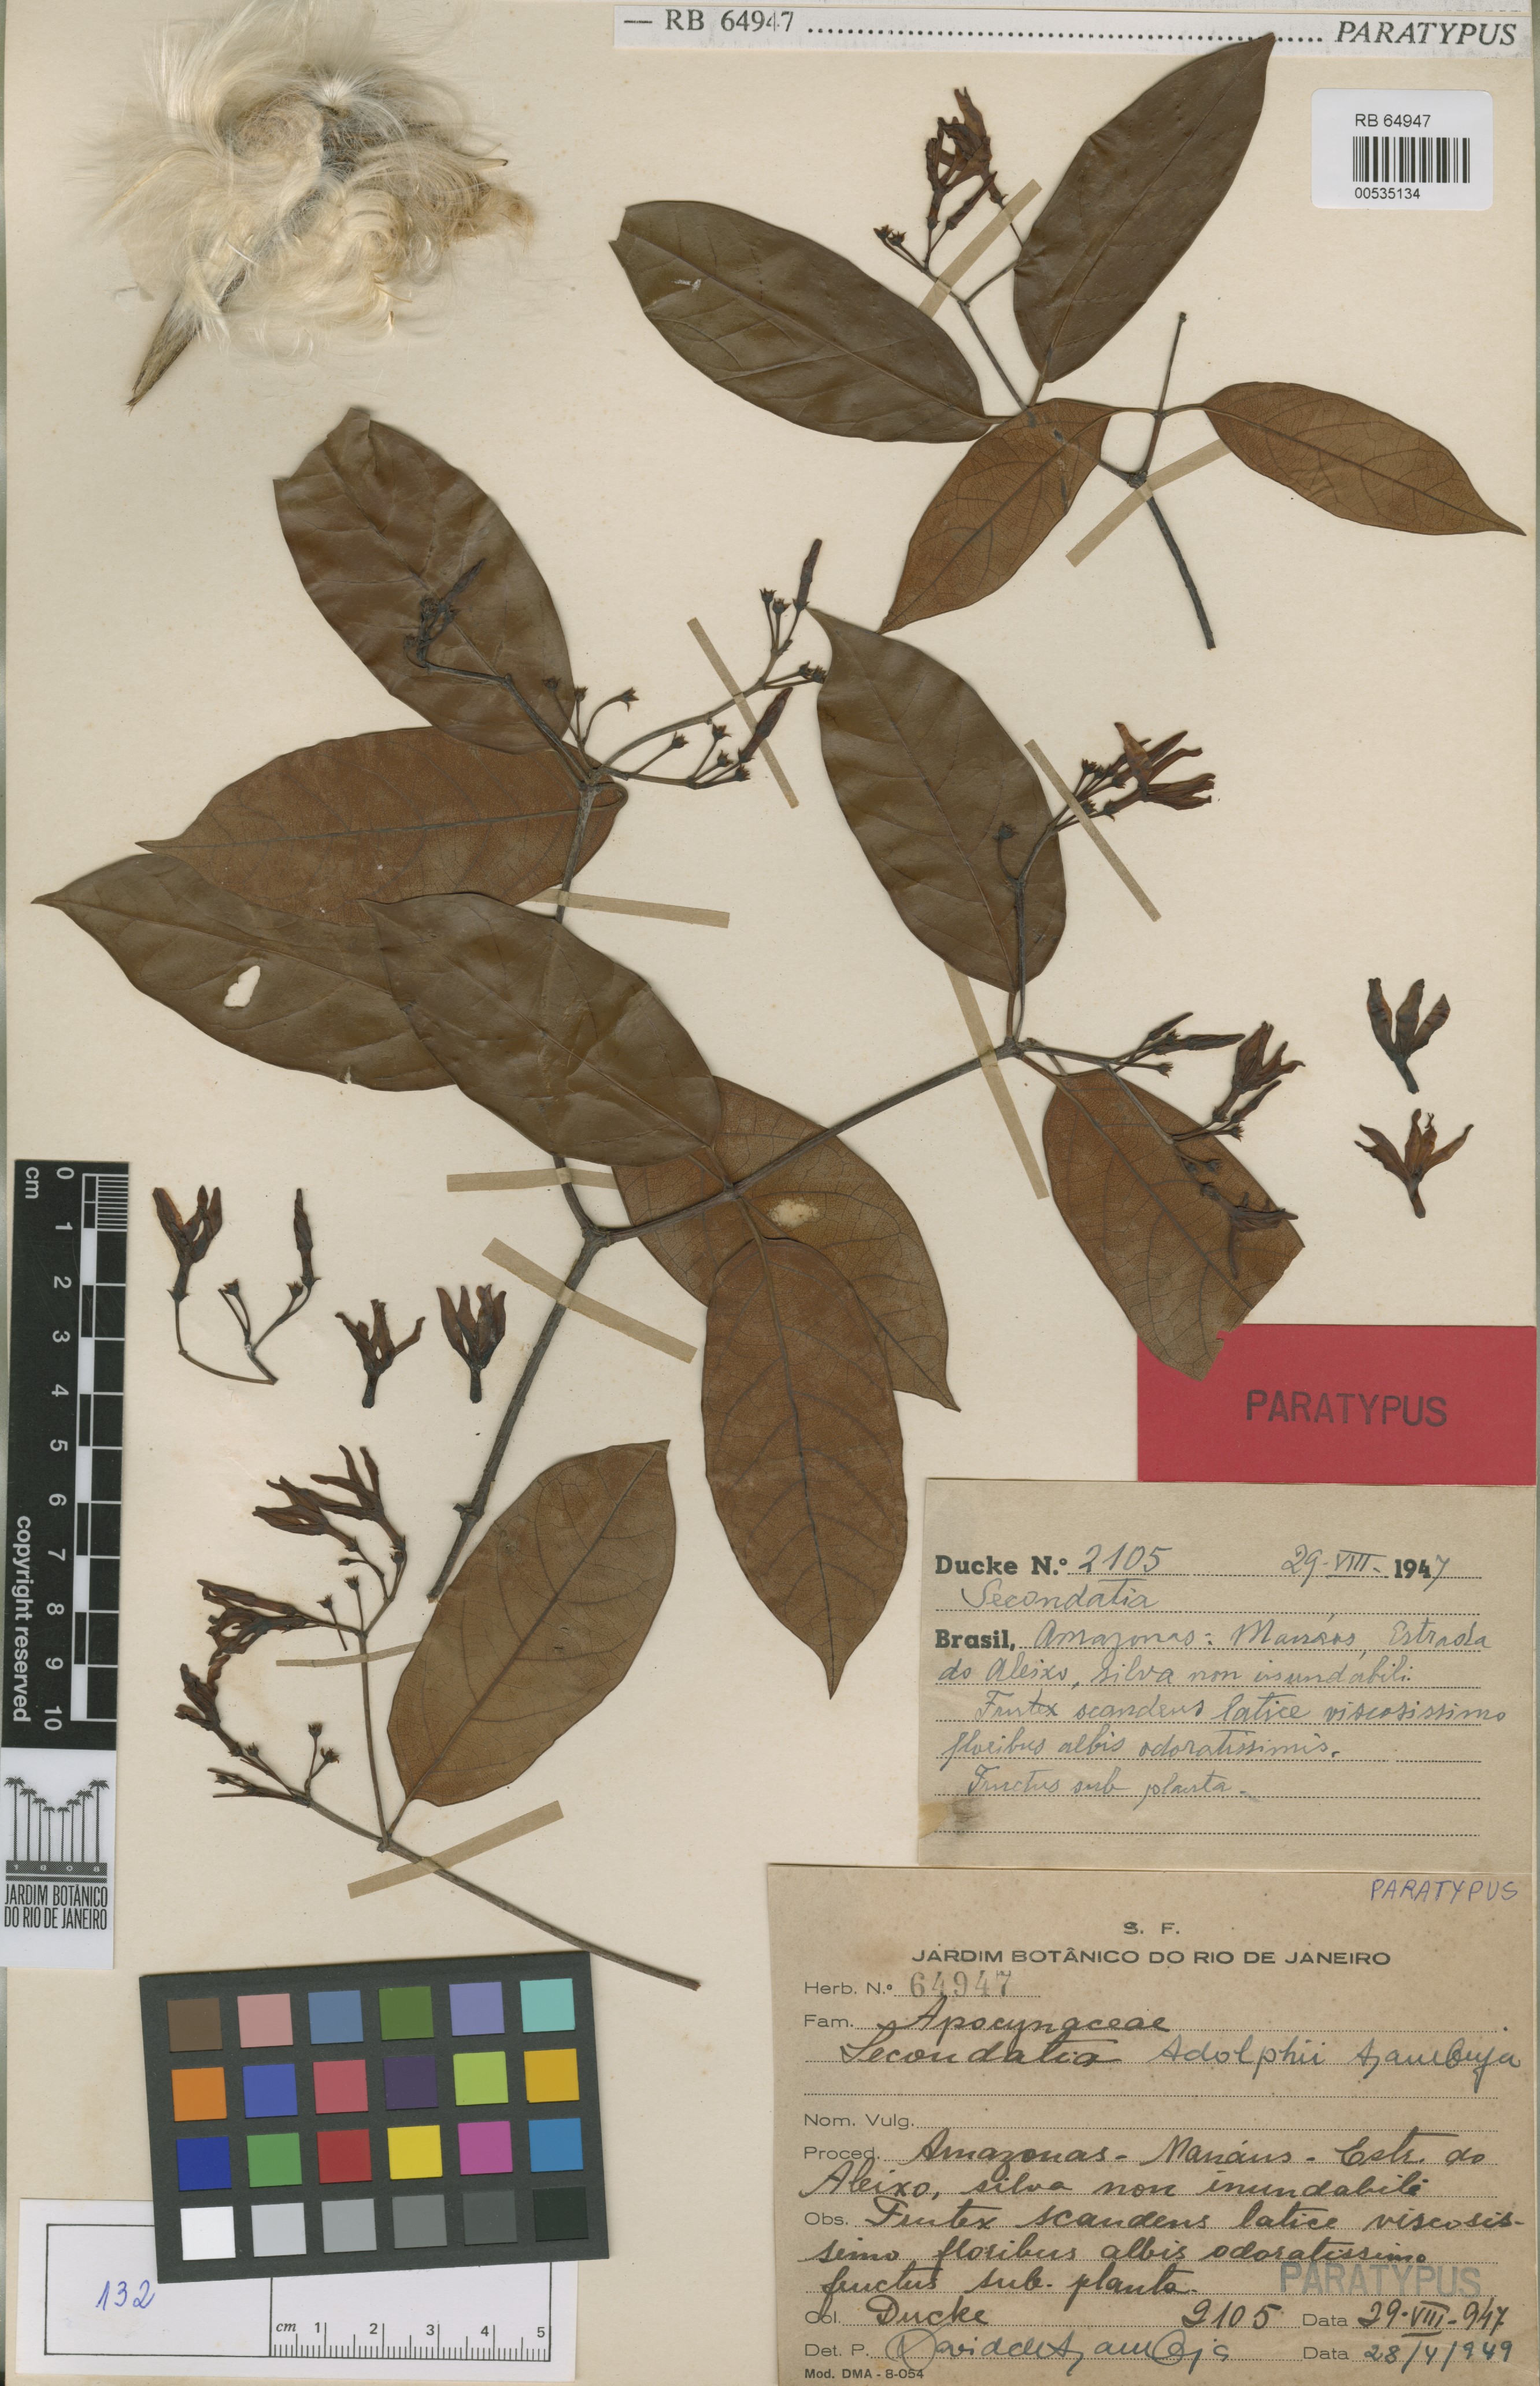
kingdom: Plantae
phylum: Tracheophyta
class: Magnoliopsida
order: Gentianales
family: Apocynaceae
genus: Secondatia
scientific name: Secondatia duckei
